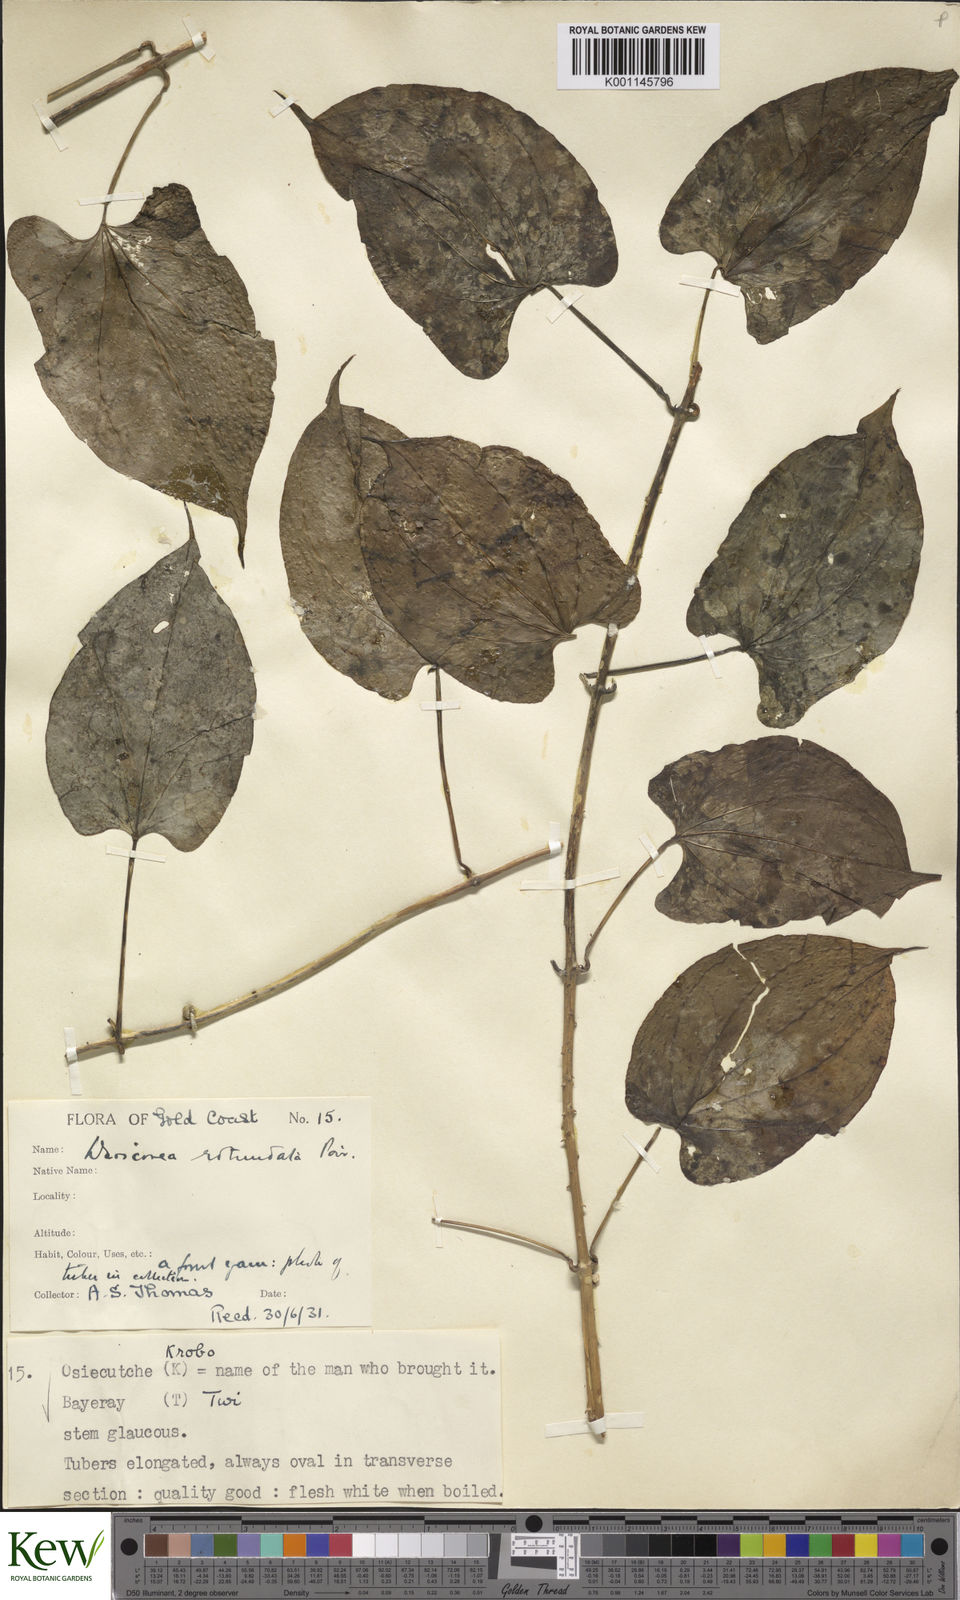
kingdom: Plantae
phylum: Tracheophyta
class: Liliopsida
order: Dioscoreales
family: Dioscoreaceae
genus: Dioscorea
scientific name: Dioscorea cayenensis
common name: Attoto yam
